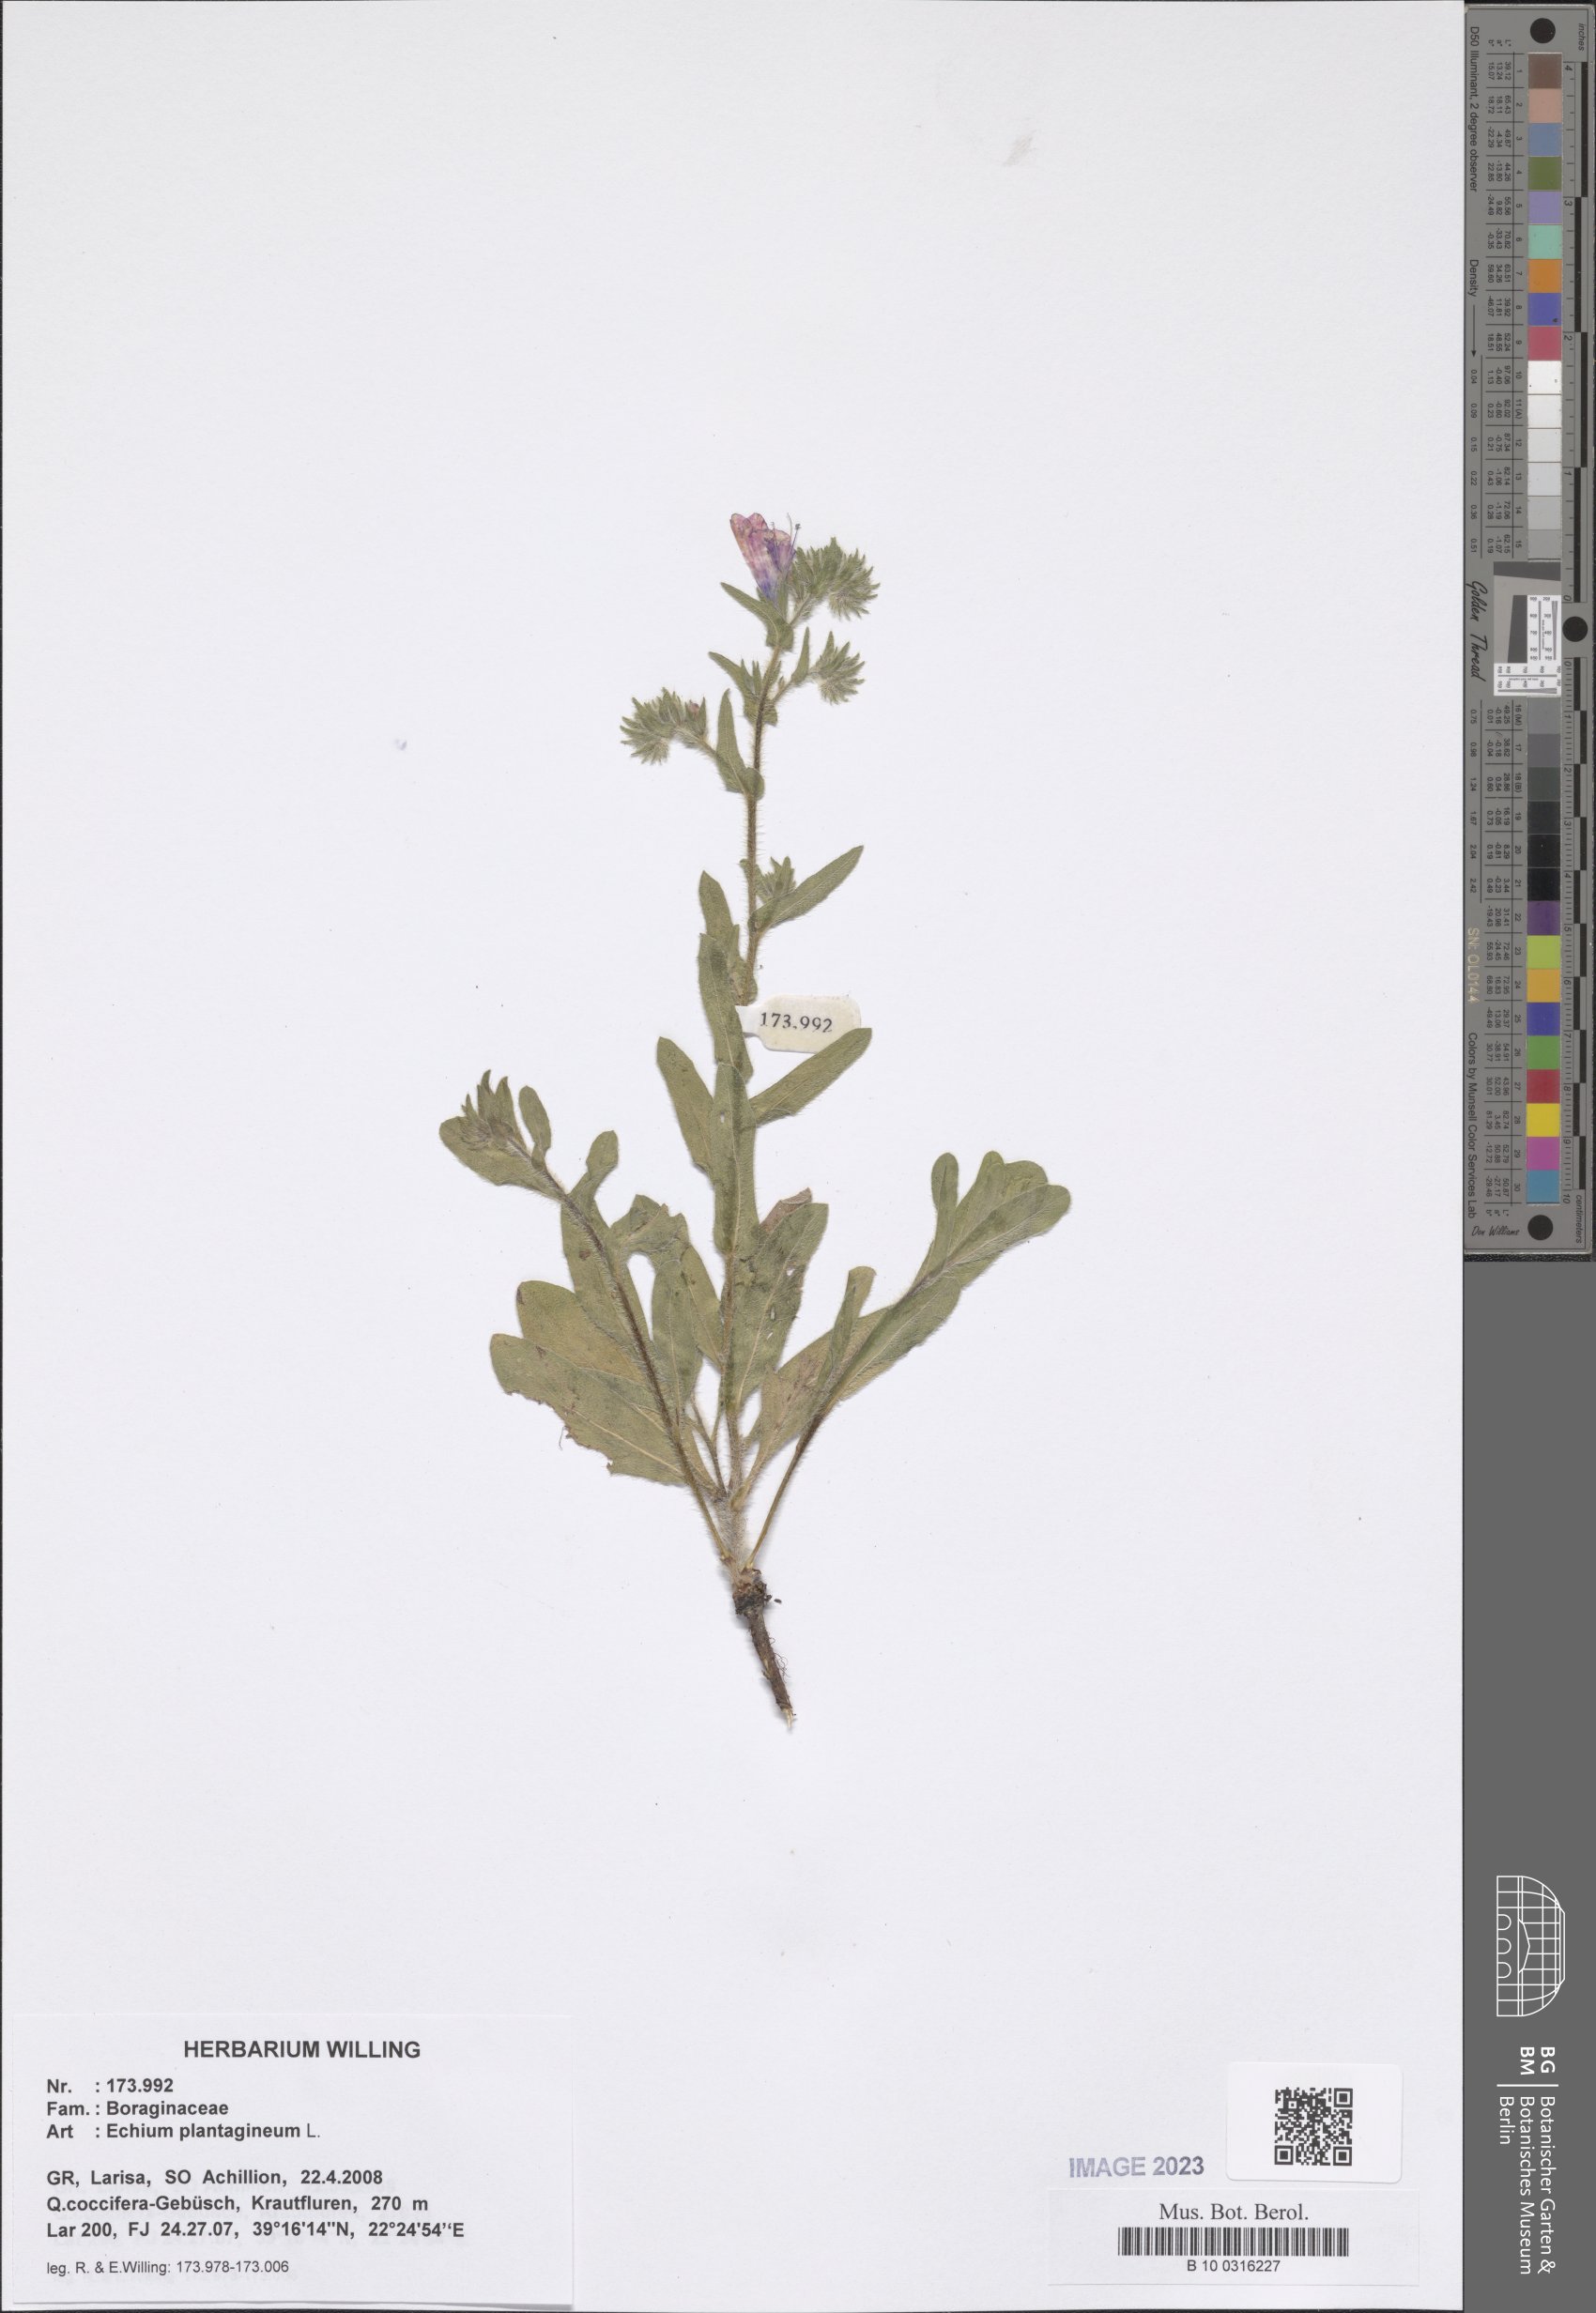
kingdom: Plantae
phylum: Tracheophyta
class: Magnoliopsida
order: Boraginales
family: Boraginaceae
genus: Echium
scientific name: Echium plantagineum
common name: Purple viper's-bugloss
